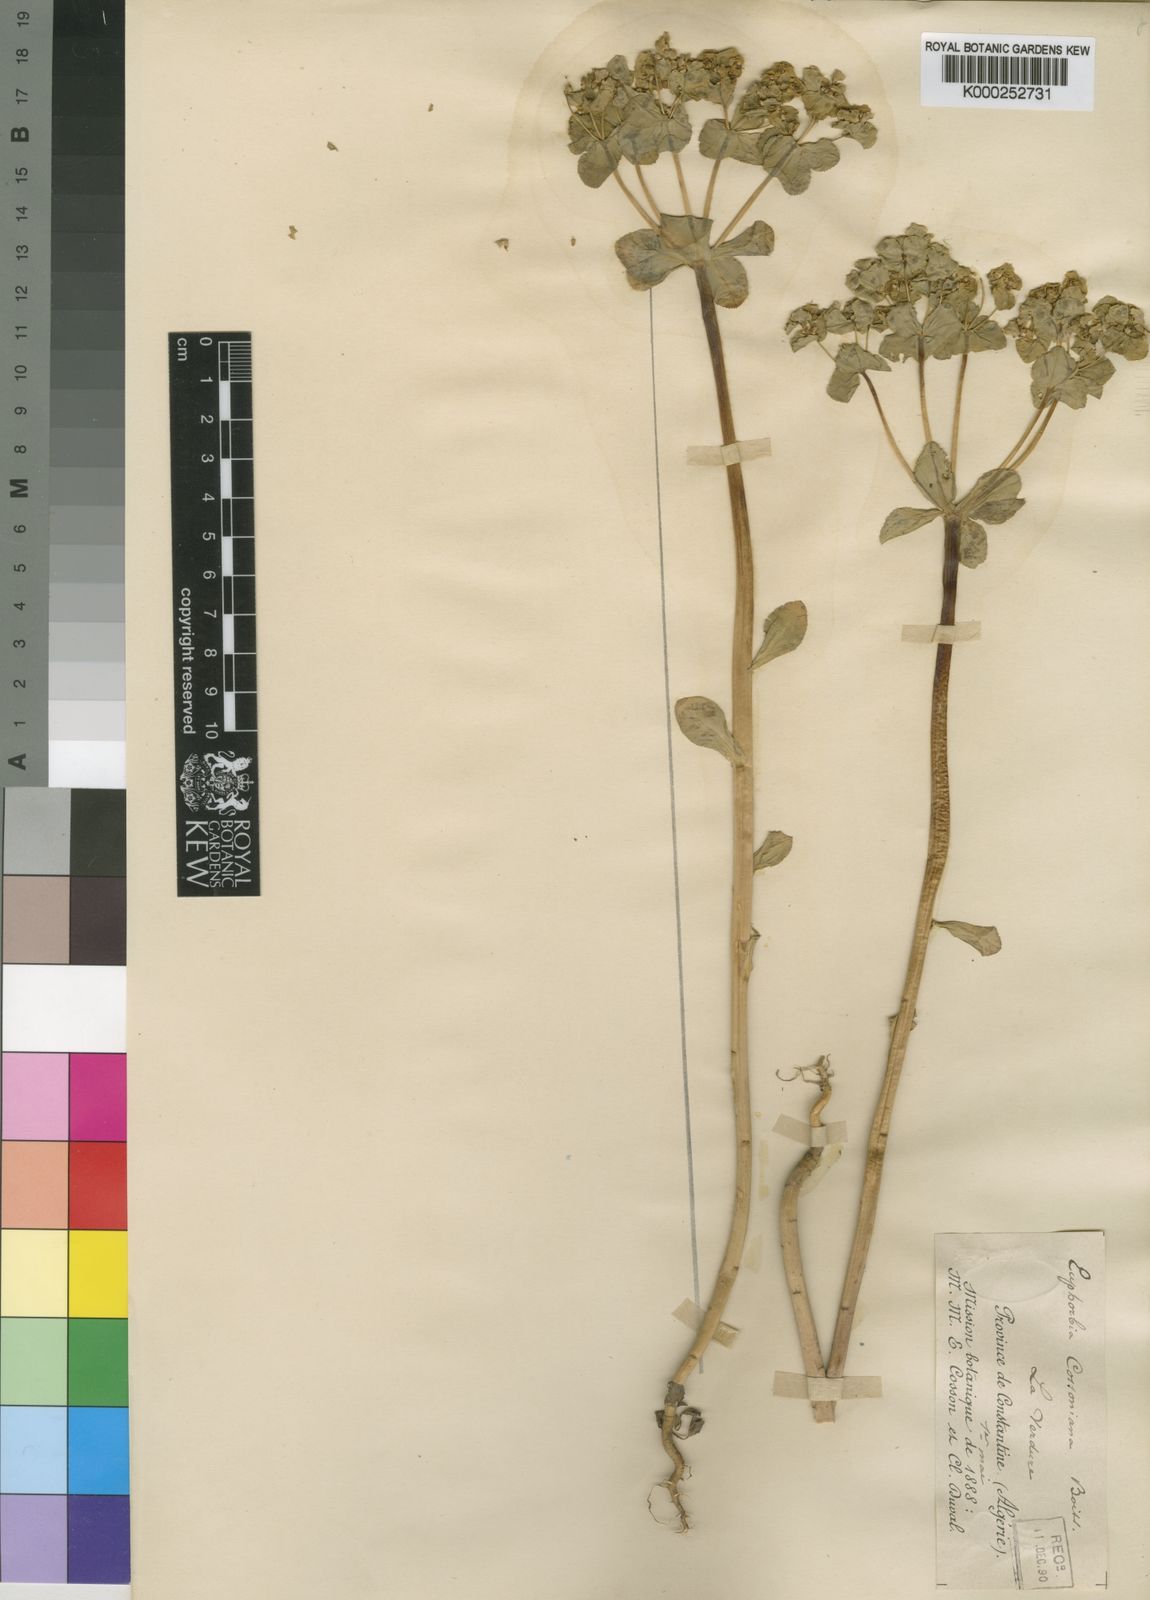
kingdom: Plantae
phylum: Tracheophyta
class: Magnoliopsida
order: Malpighiales
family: Euphorbiaceae
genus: Euphorbia
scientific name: Euphorbia cossoniana
